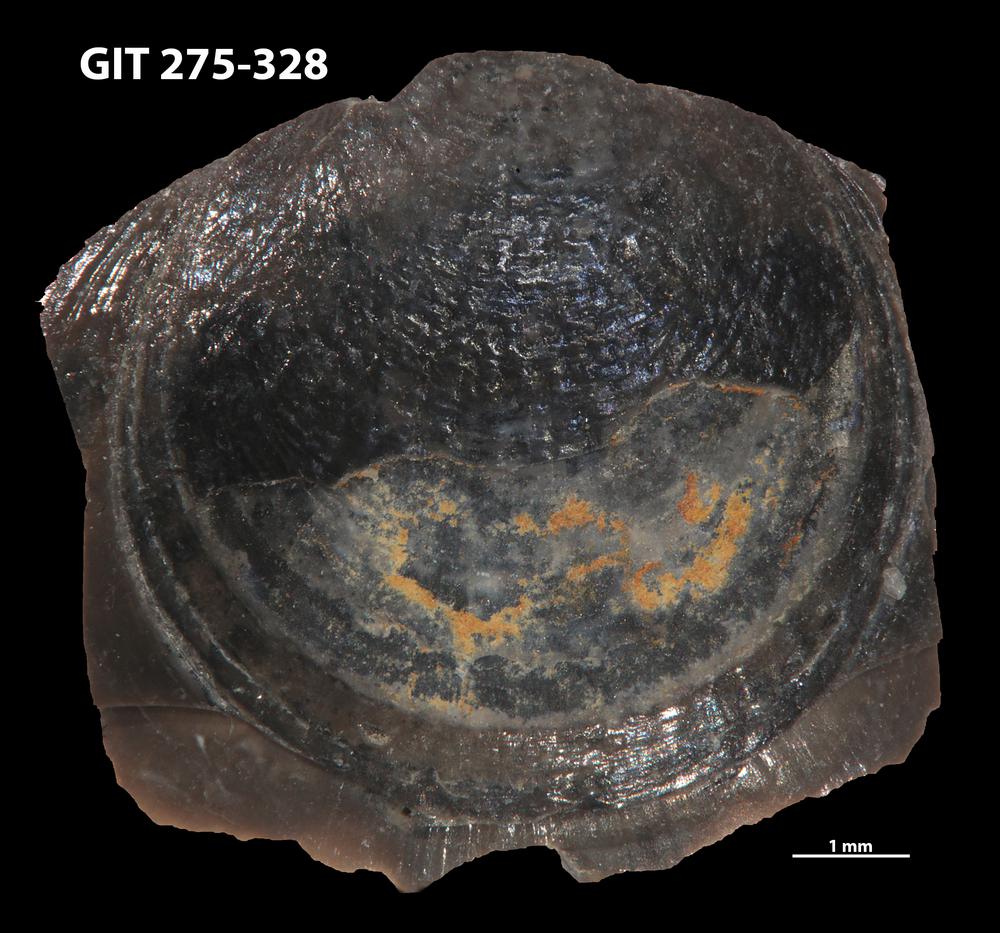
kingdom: Animalia
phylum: Brachiopoda
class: Lingulata
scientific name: Lingulata
